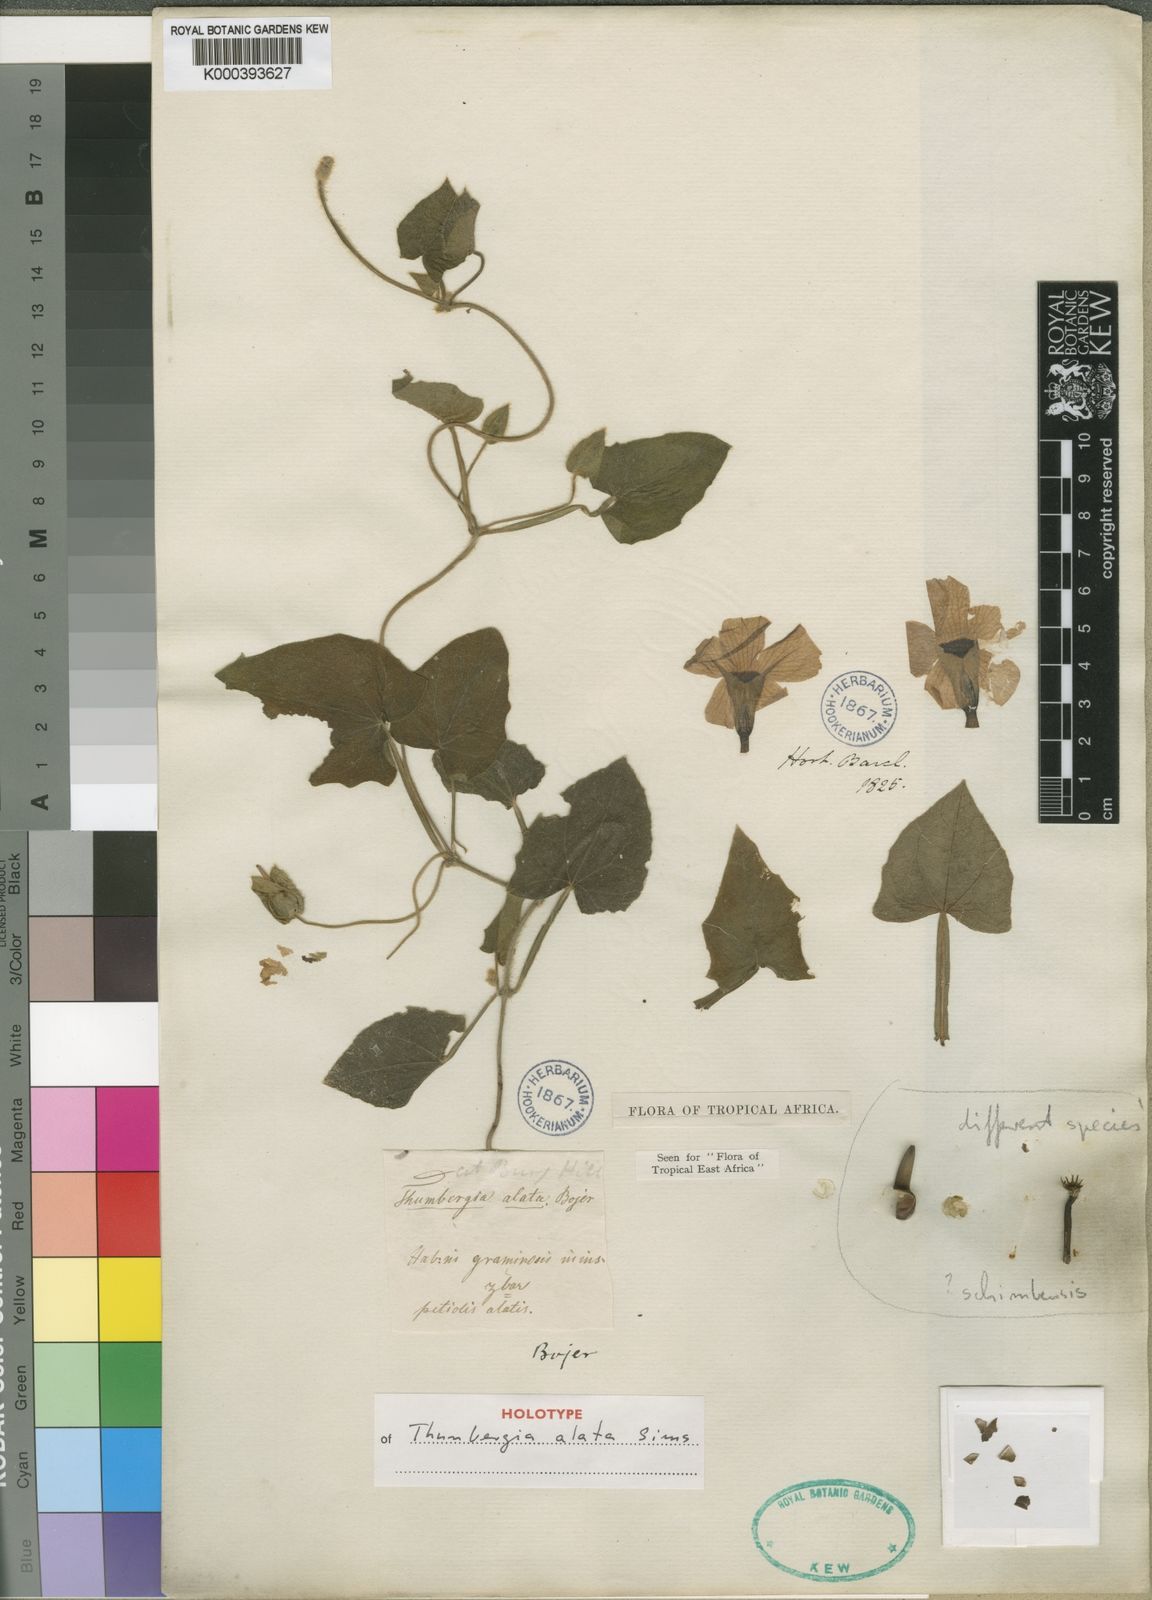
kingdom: Plantae
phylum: Tracheophyta
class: Magnoliopsida
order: Lamiales
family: Acanthaceae
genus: Thunbergia
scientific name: Thunbergia alata
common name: Blackeyed susan vine
